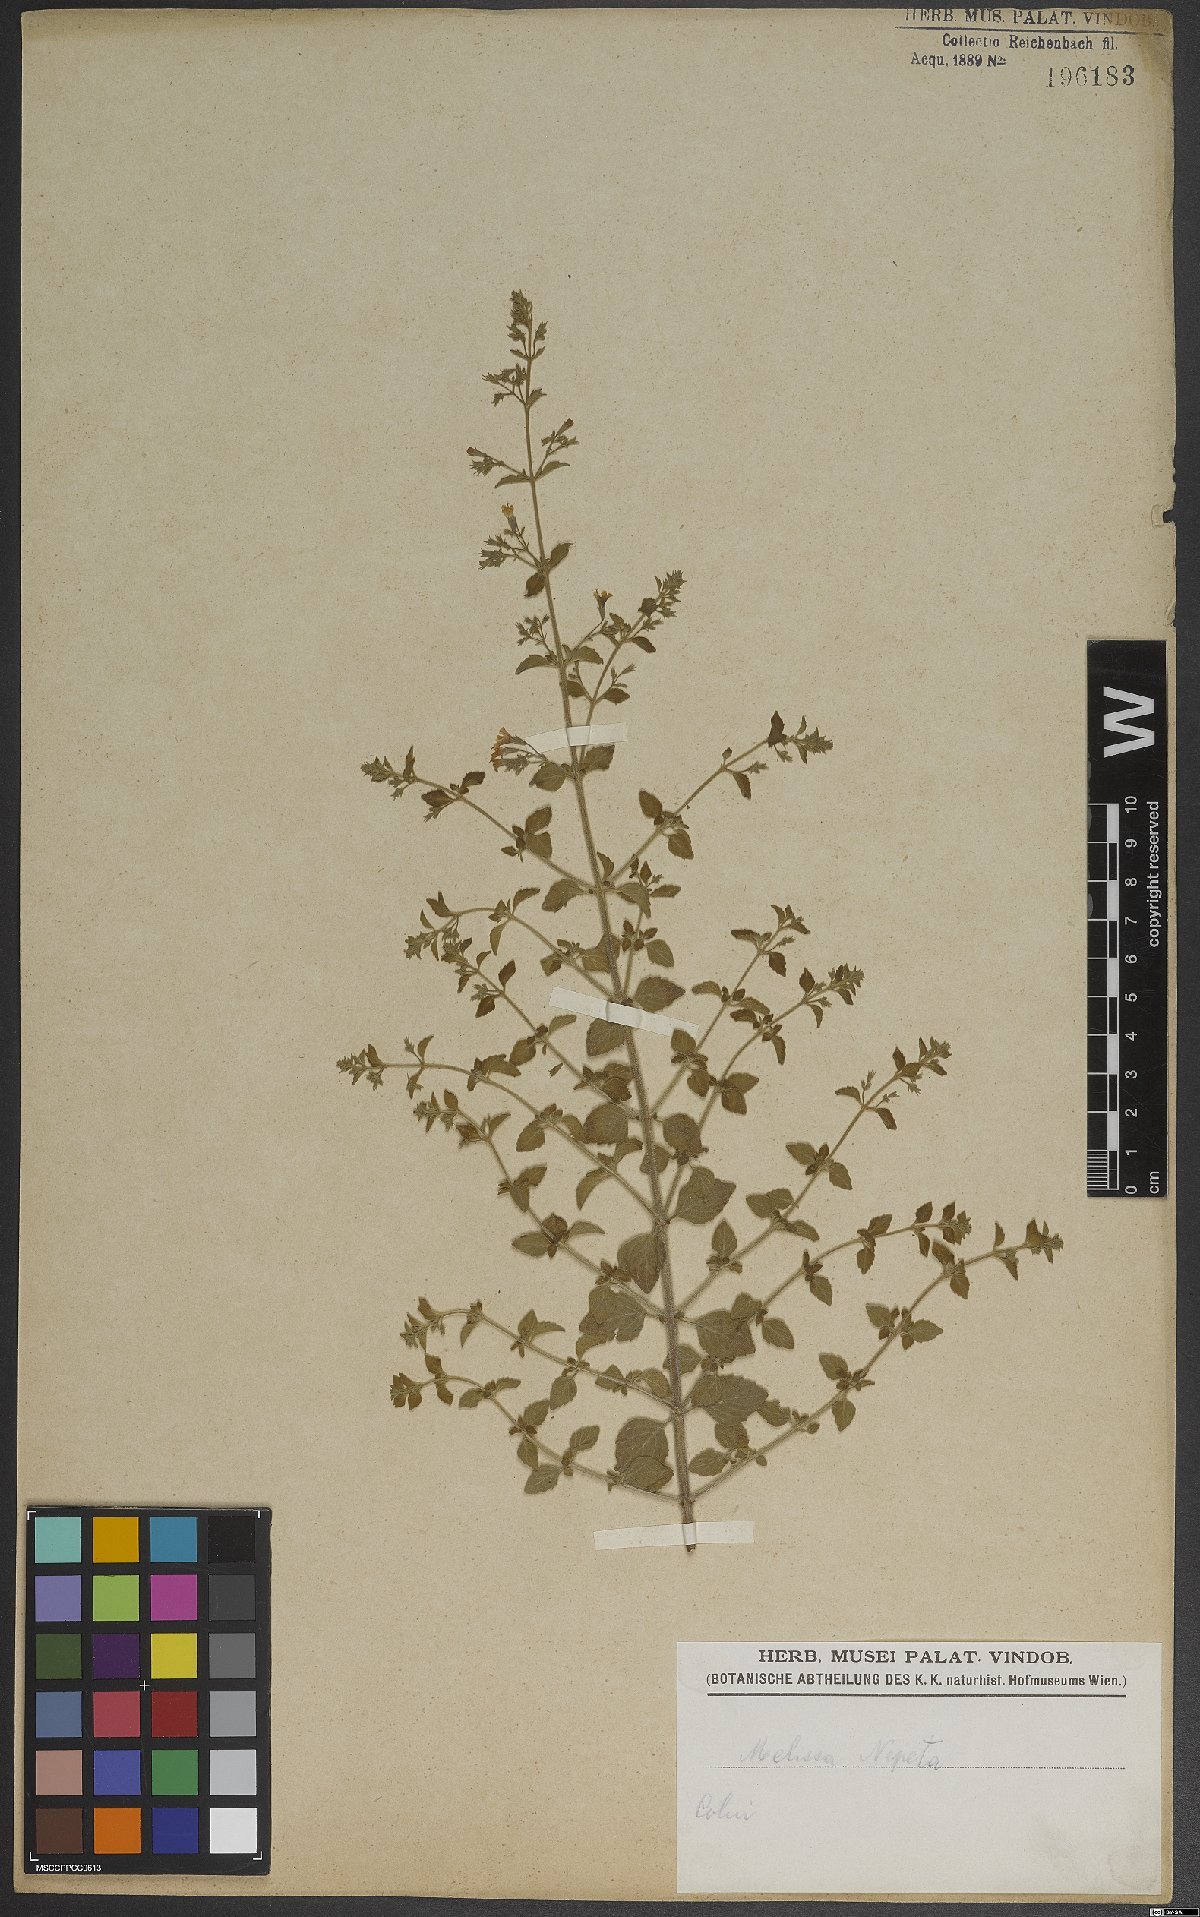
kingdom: Plantae
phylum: Tracheophyta
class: Magnoliopsida
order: Lamiales
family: Lamiaceae
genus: Clinopodium
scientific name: Clinopodium nepeta
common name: Lesser calamint
